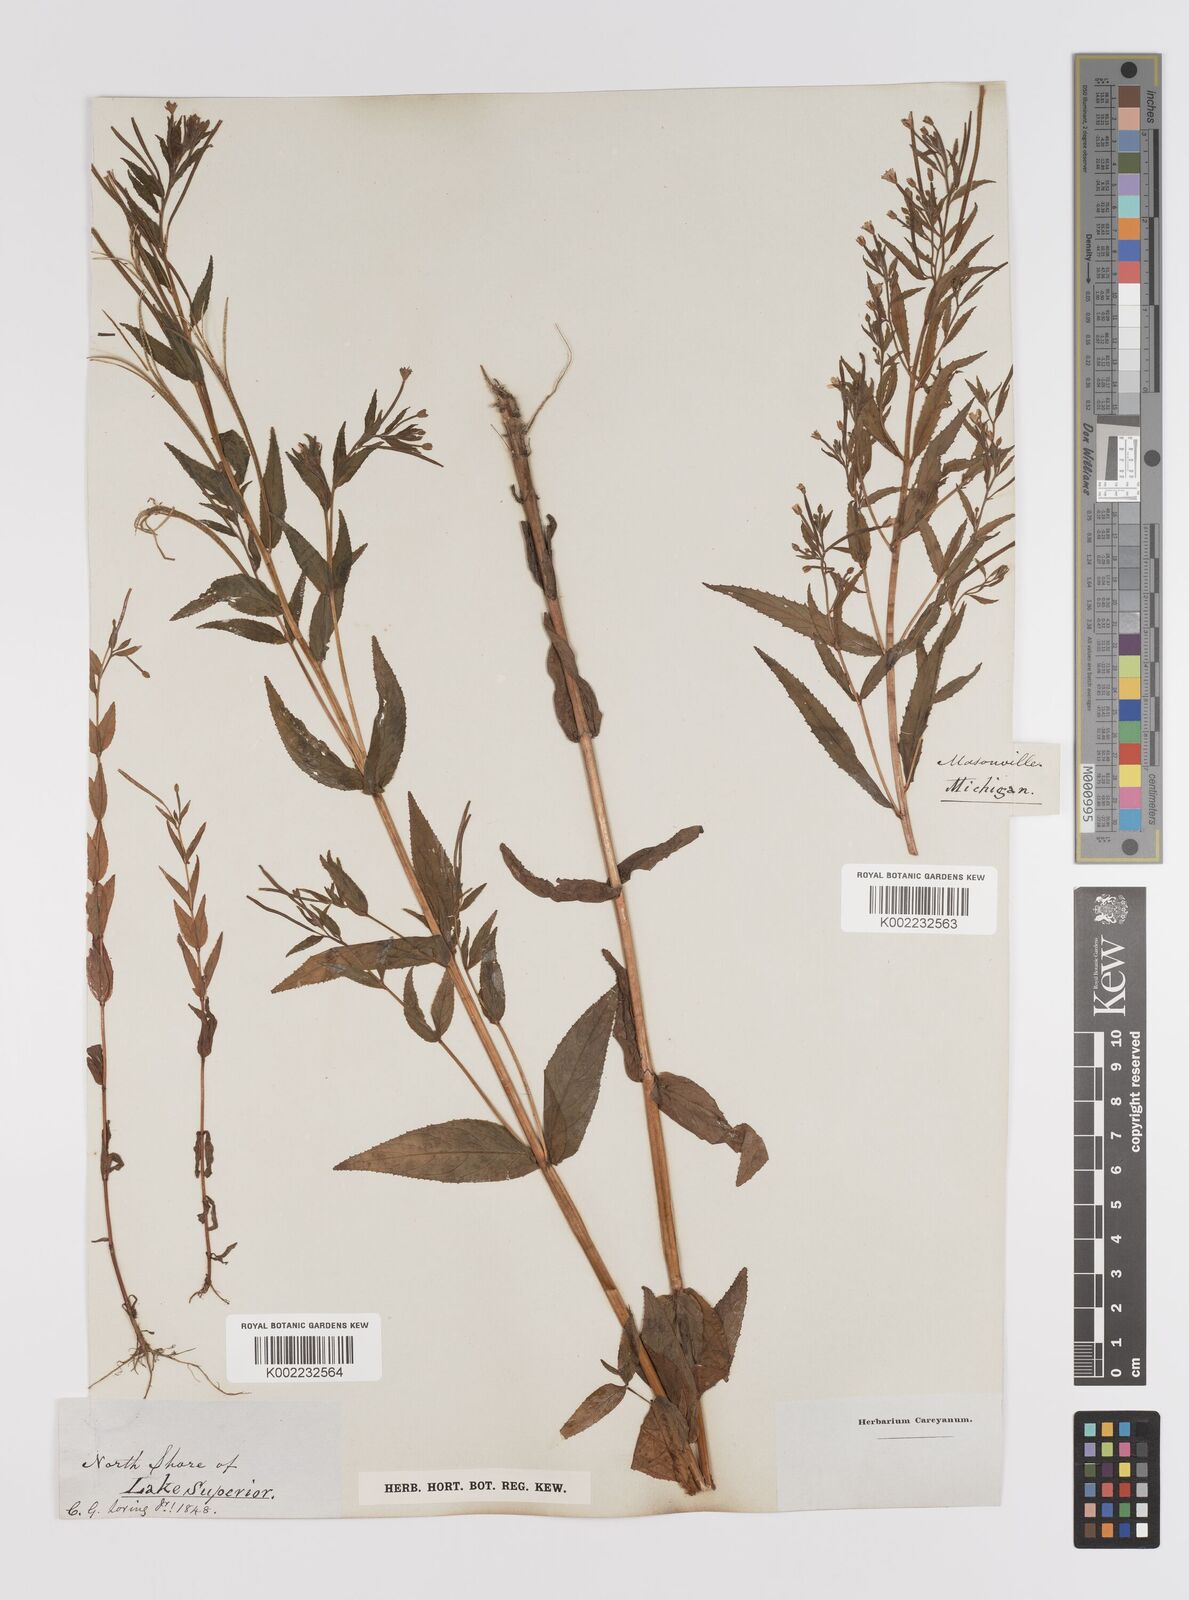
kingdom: Plantae
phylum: Tracheophyta
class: Magnoliopsida
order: Myrtales
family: Onagraceae
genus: Epilobium
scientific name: Epilobium coloratum
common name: Bronze willowherb
